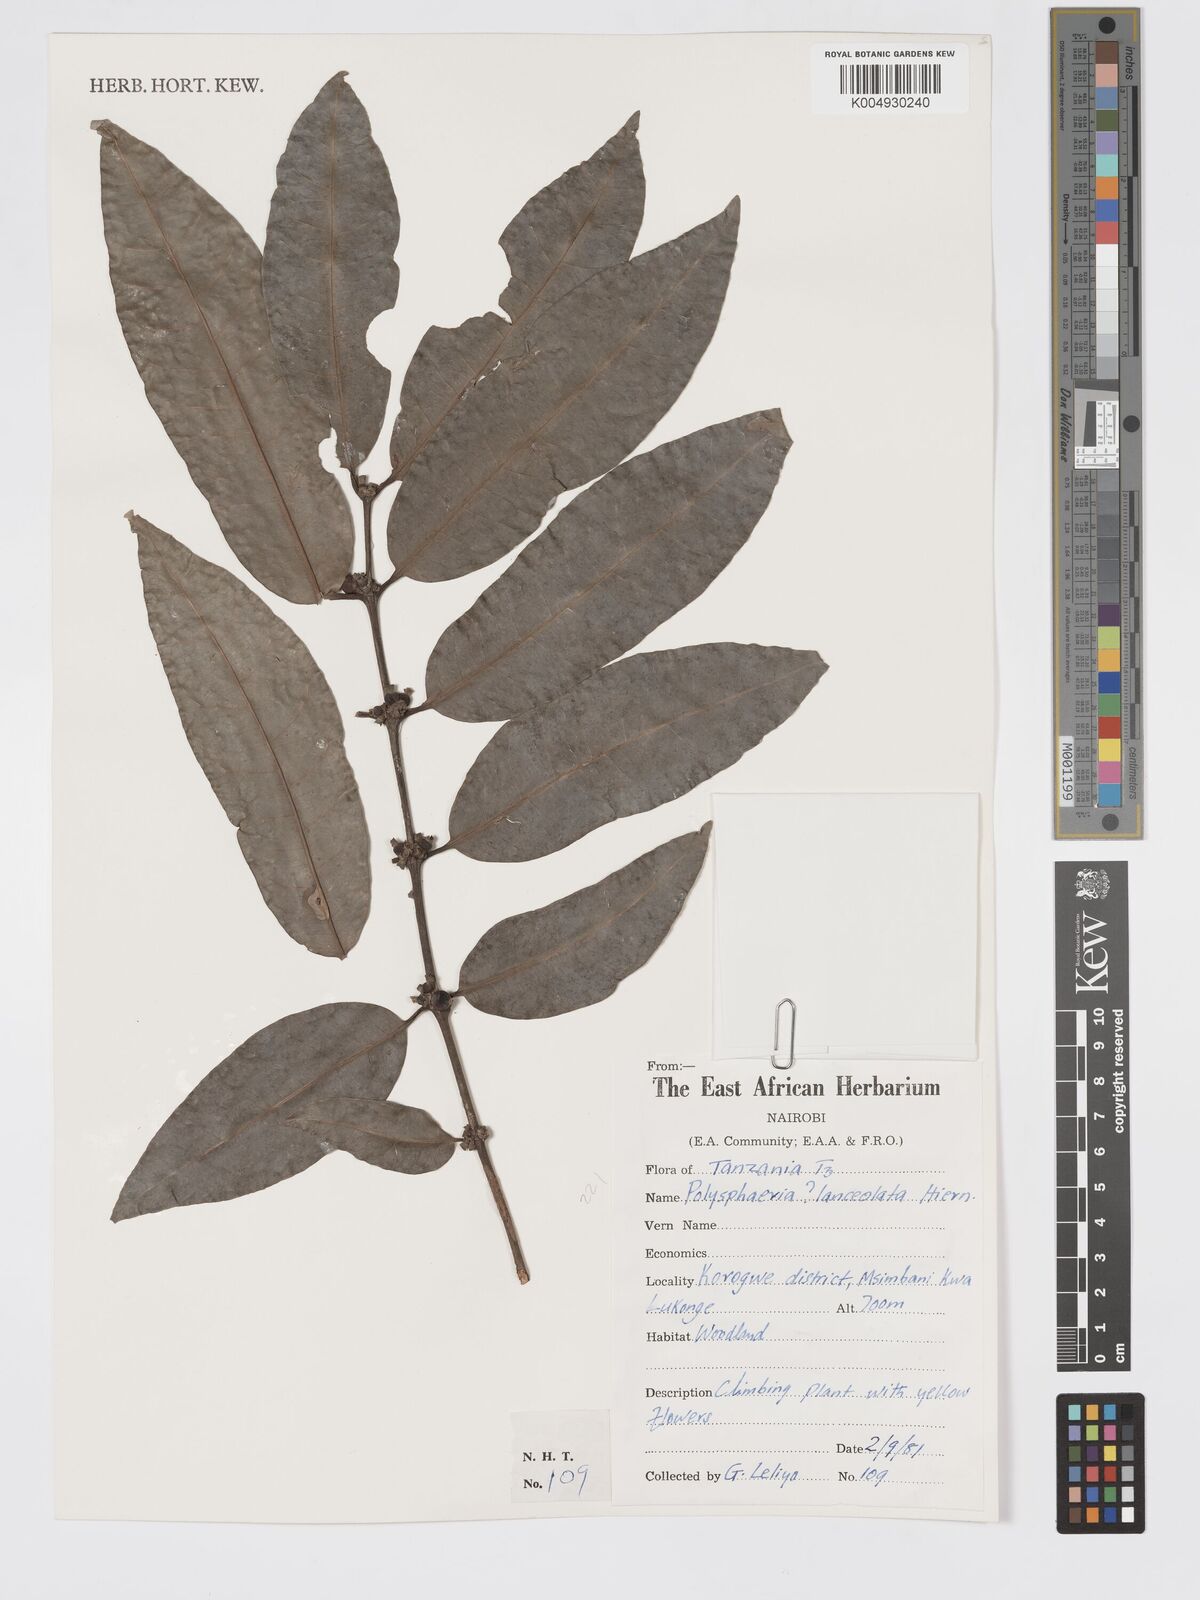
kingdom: Plantae
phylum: Tracheophyta
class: Magnoliopsida
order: Gentianales
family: Rubiaceae
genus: Polysphaeria
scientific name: Polysphaeria lanceolata
